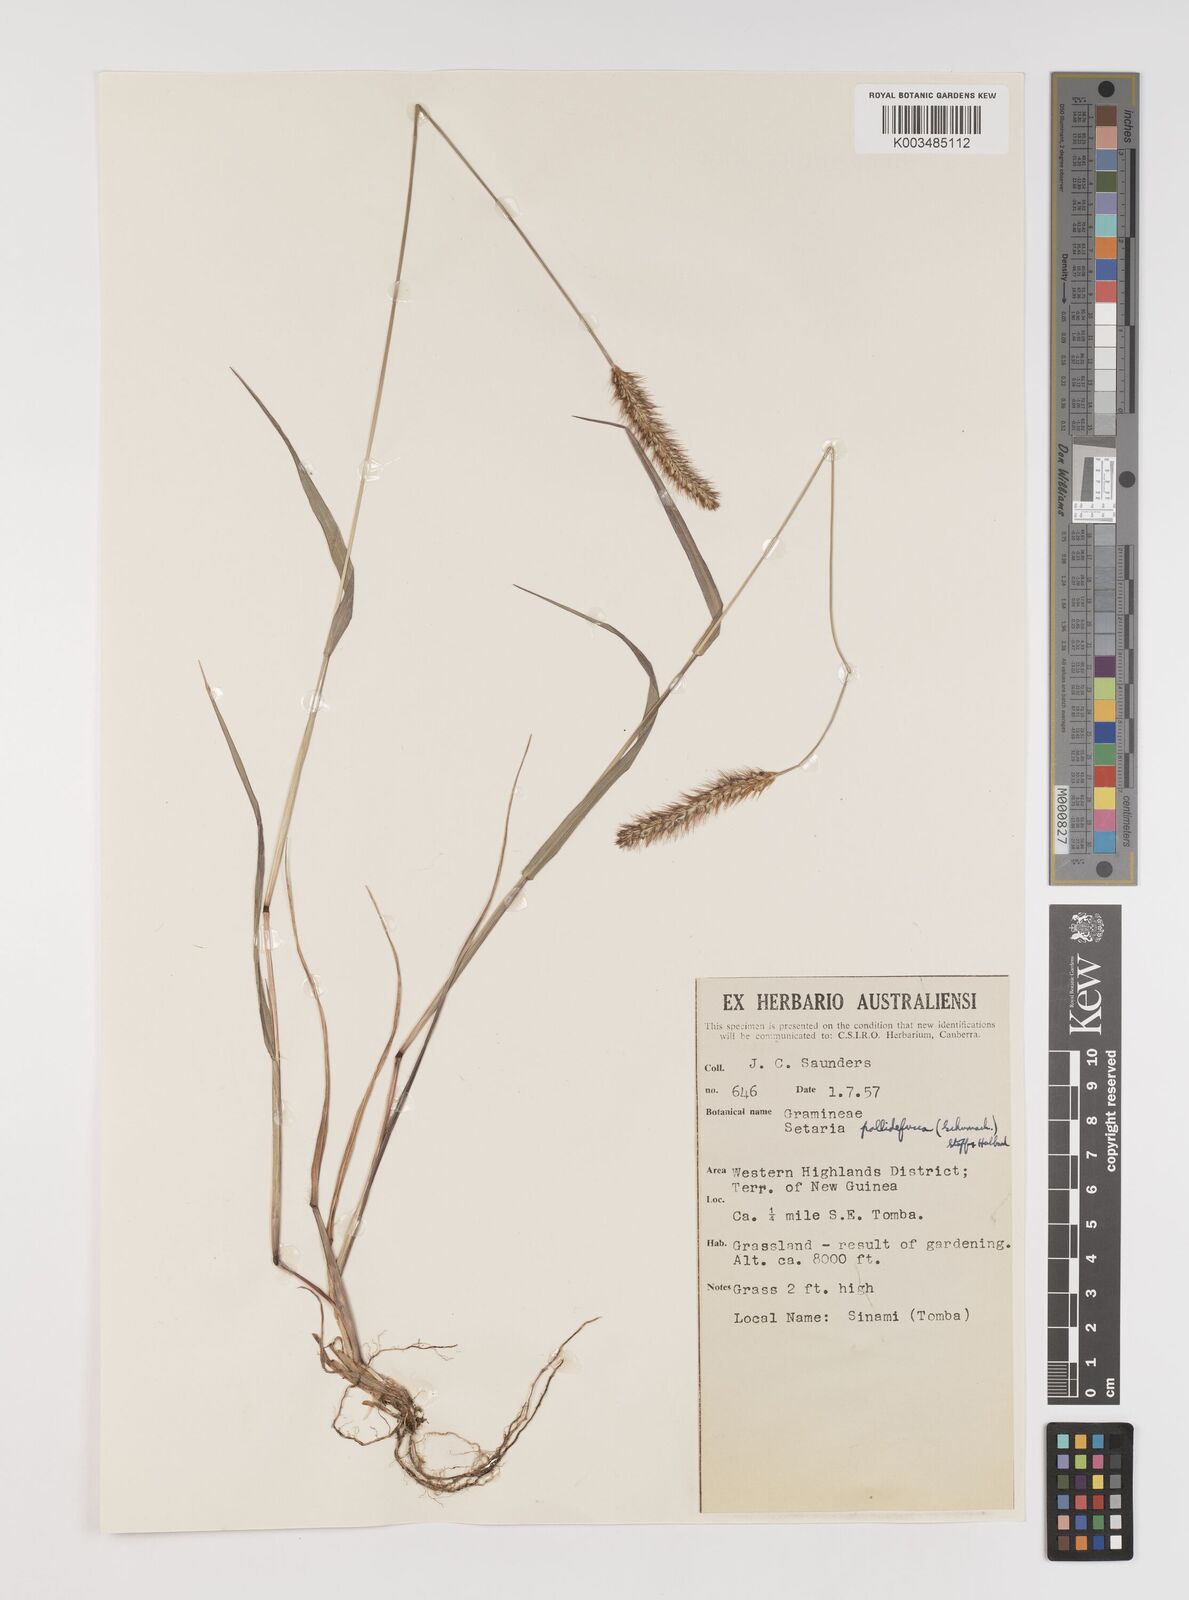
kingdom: Plantae
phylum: Tracheophyta
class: Liliopsida
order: Poales
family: Poaceae
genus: Setaria
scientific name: Setaria parviflora
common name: Knotroot bristle-grass
